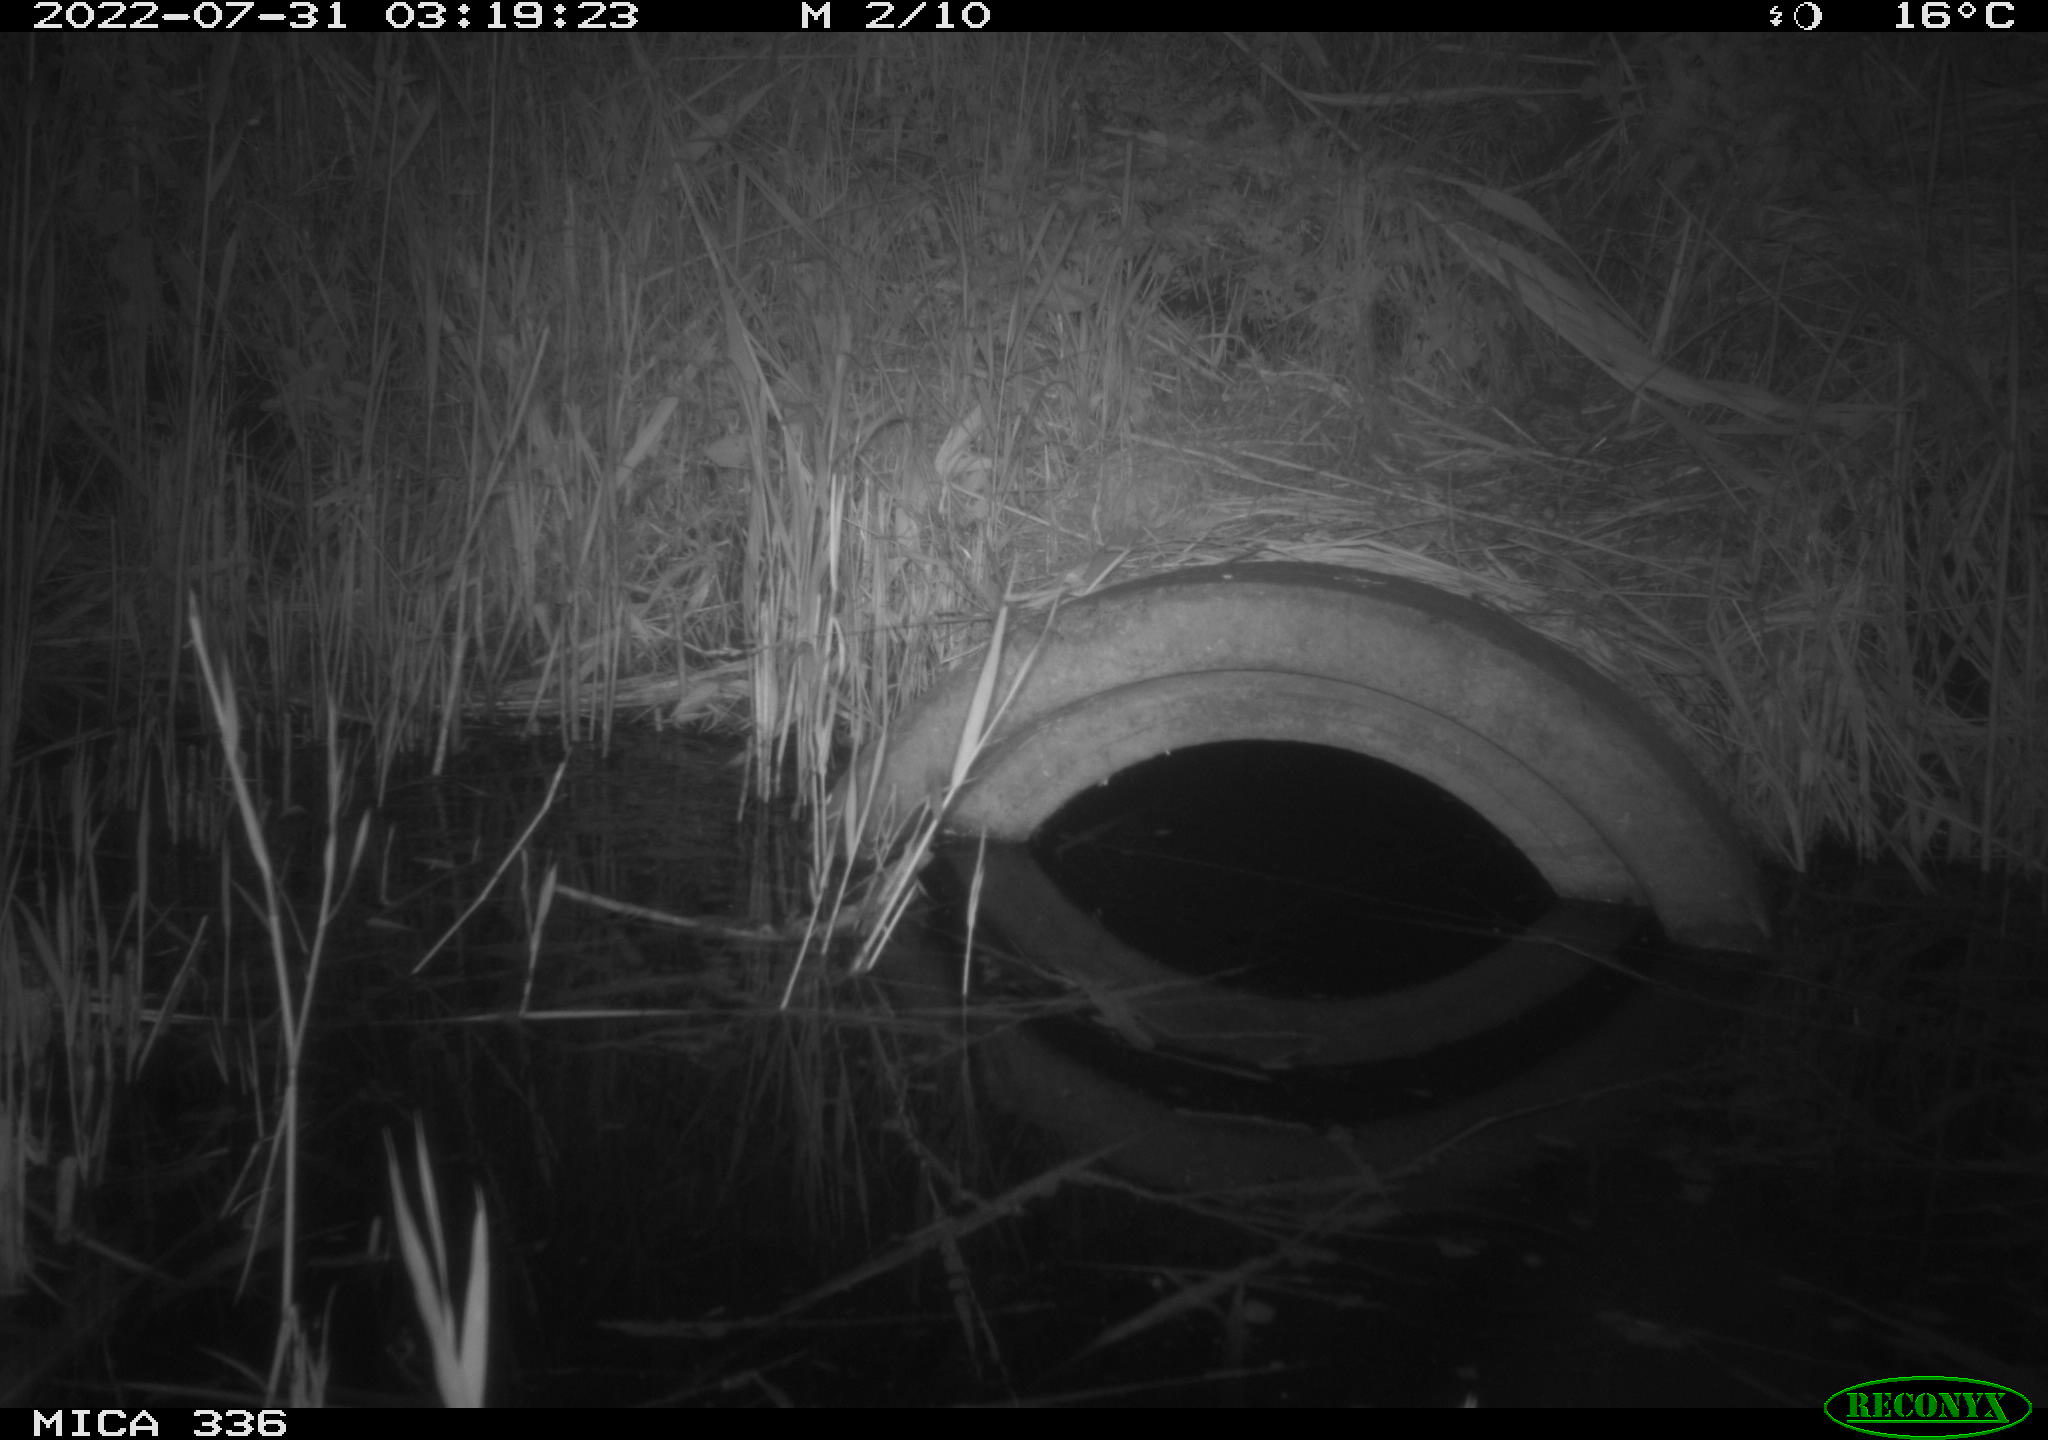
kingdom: Animalia
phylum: Chordata
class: Mammalia
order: Rodentia
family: Muridae
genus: Rattus
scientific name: Rattus norvegicus
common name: Brown rat
